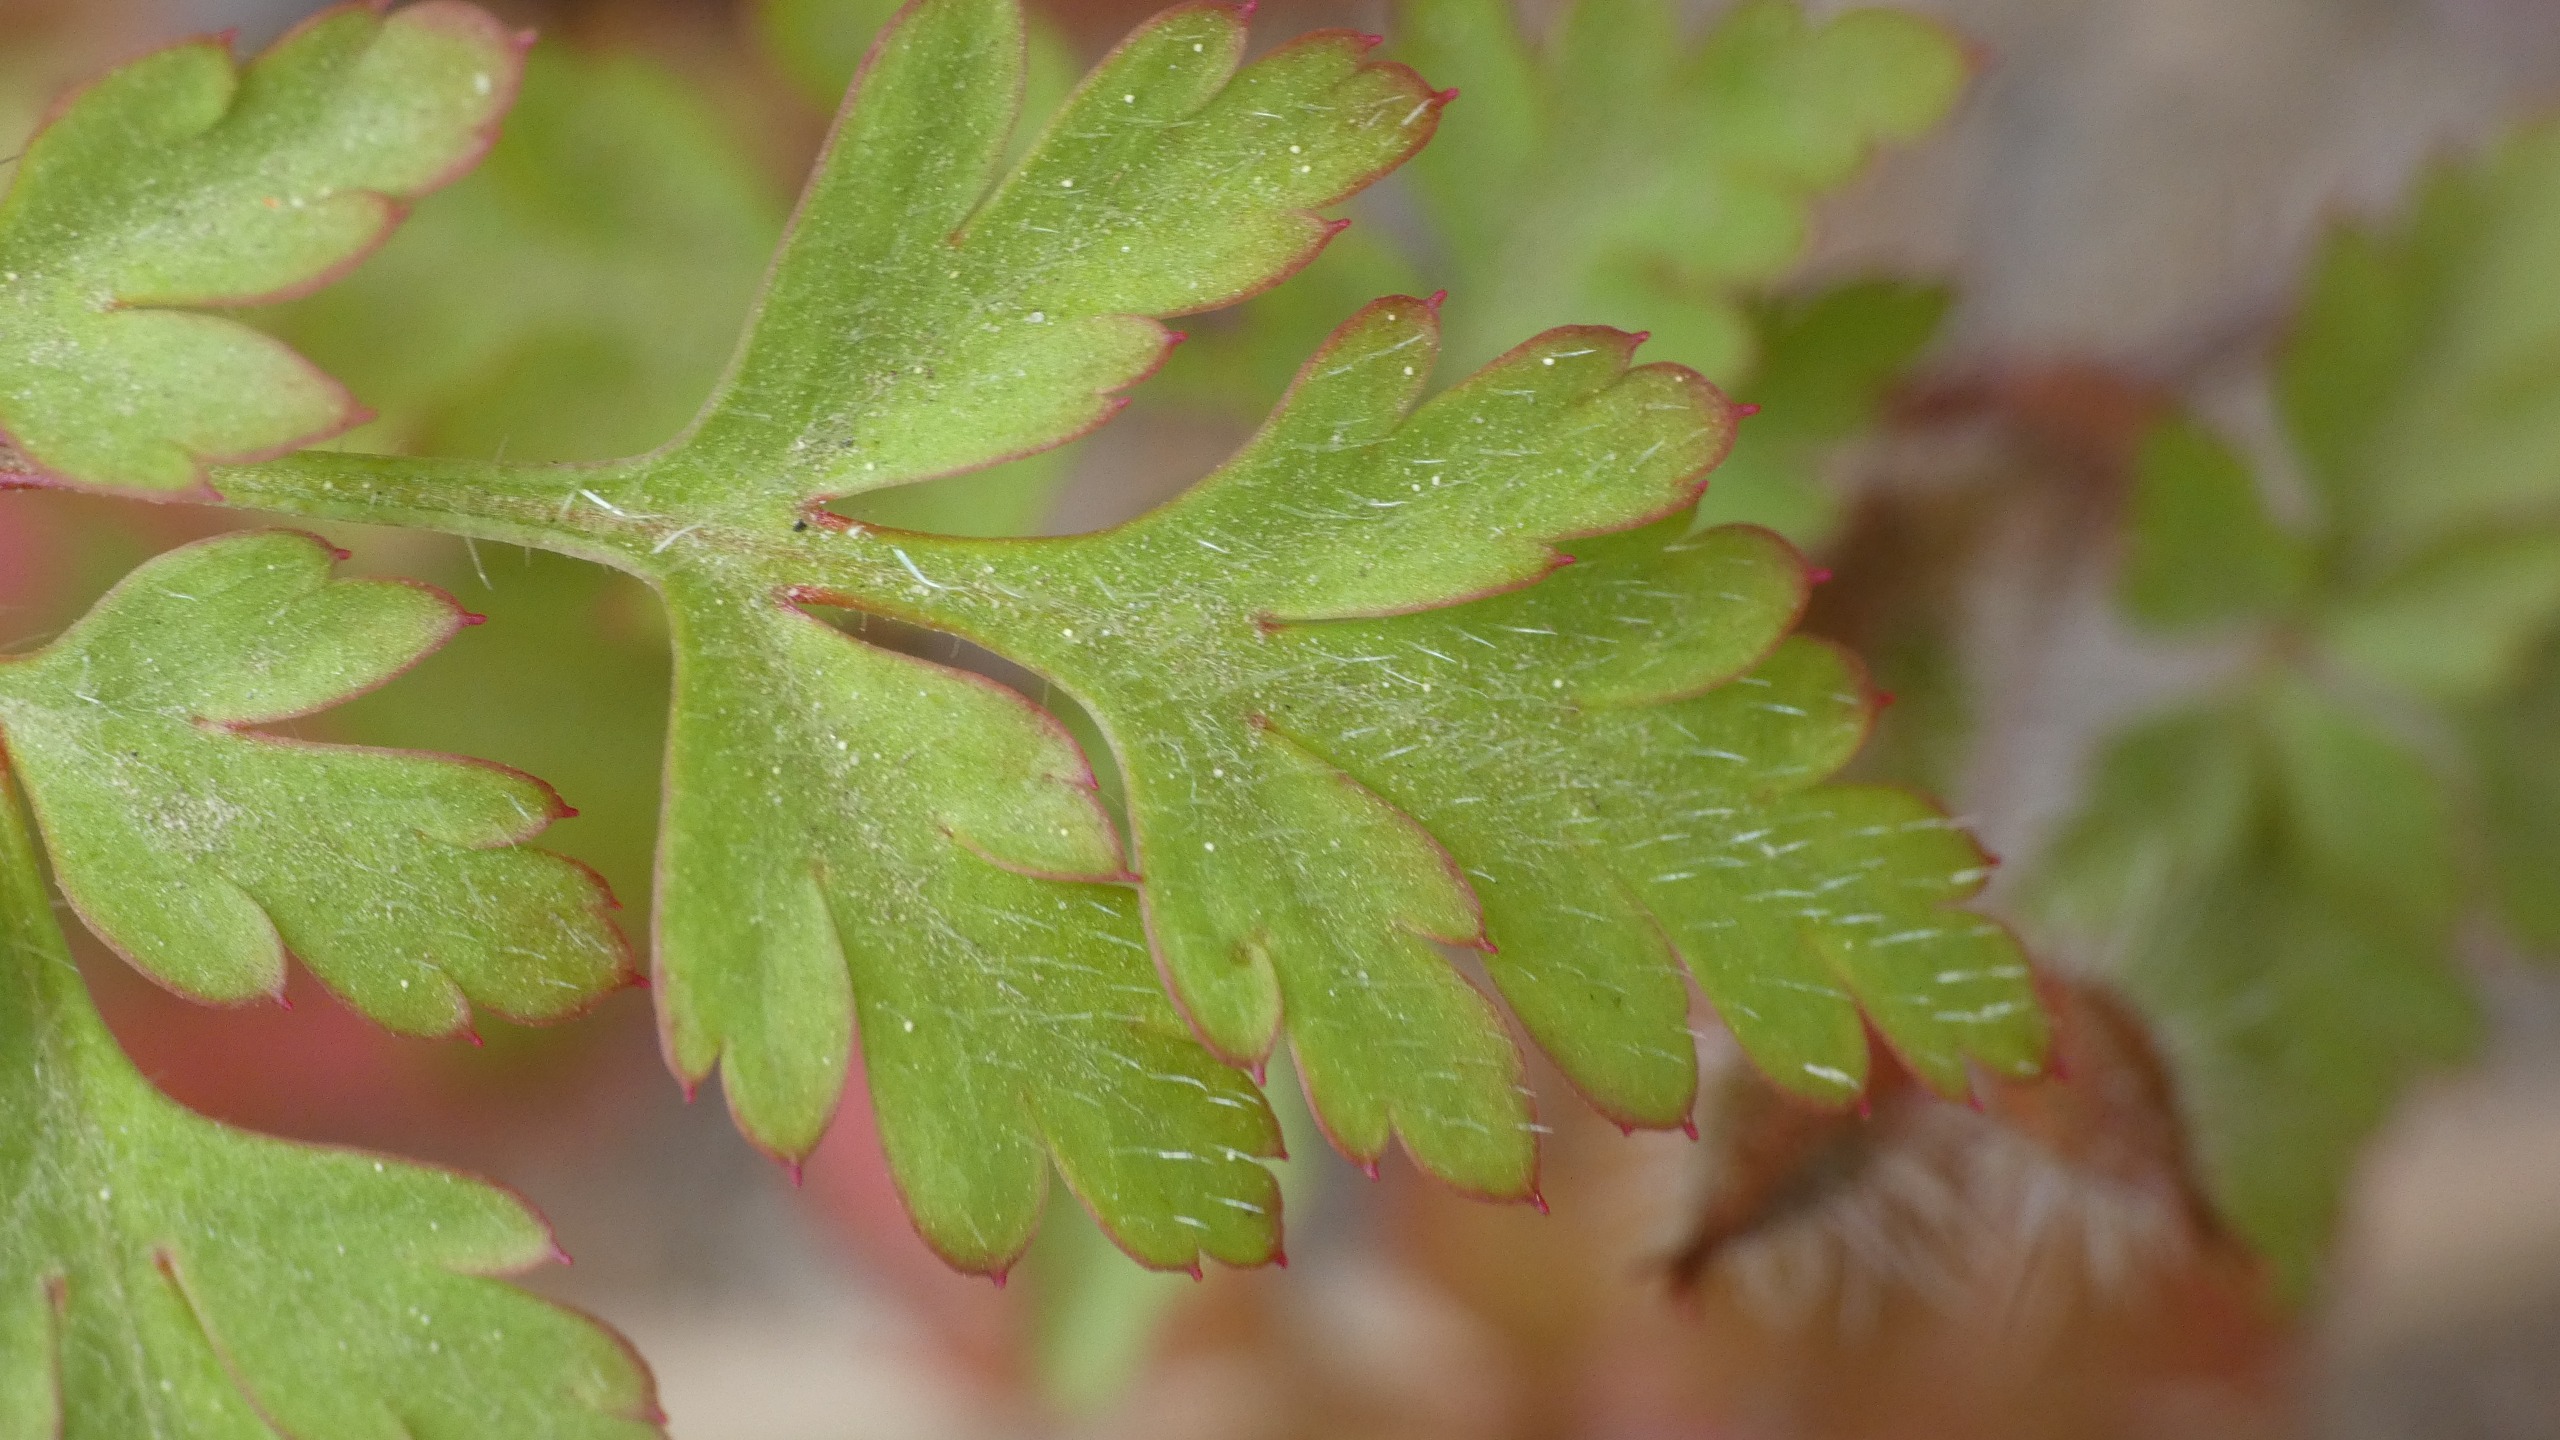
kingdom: Plantae
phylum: Tracheophyta
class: Magnoliopsida
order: Geraniales
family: Geraniaceae
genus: Geranium
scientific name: Geranium robertianum
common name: Stinkende storkenæb
